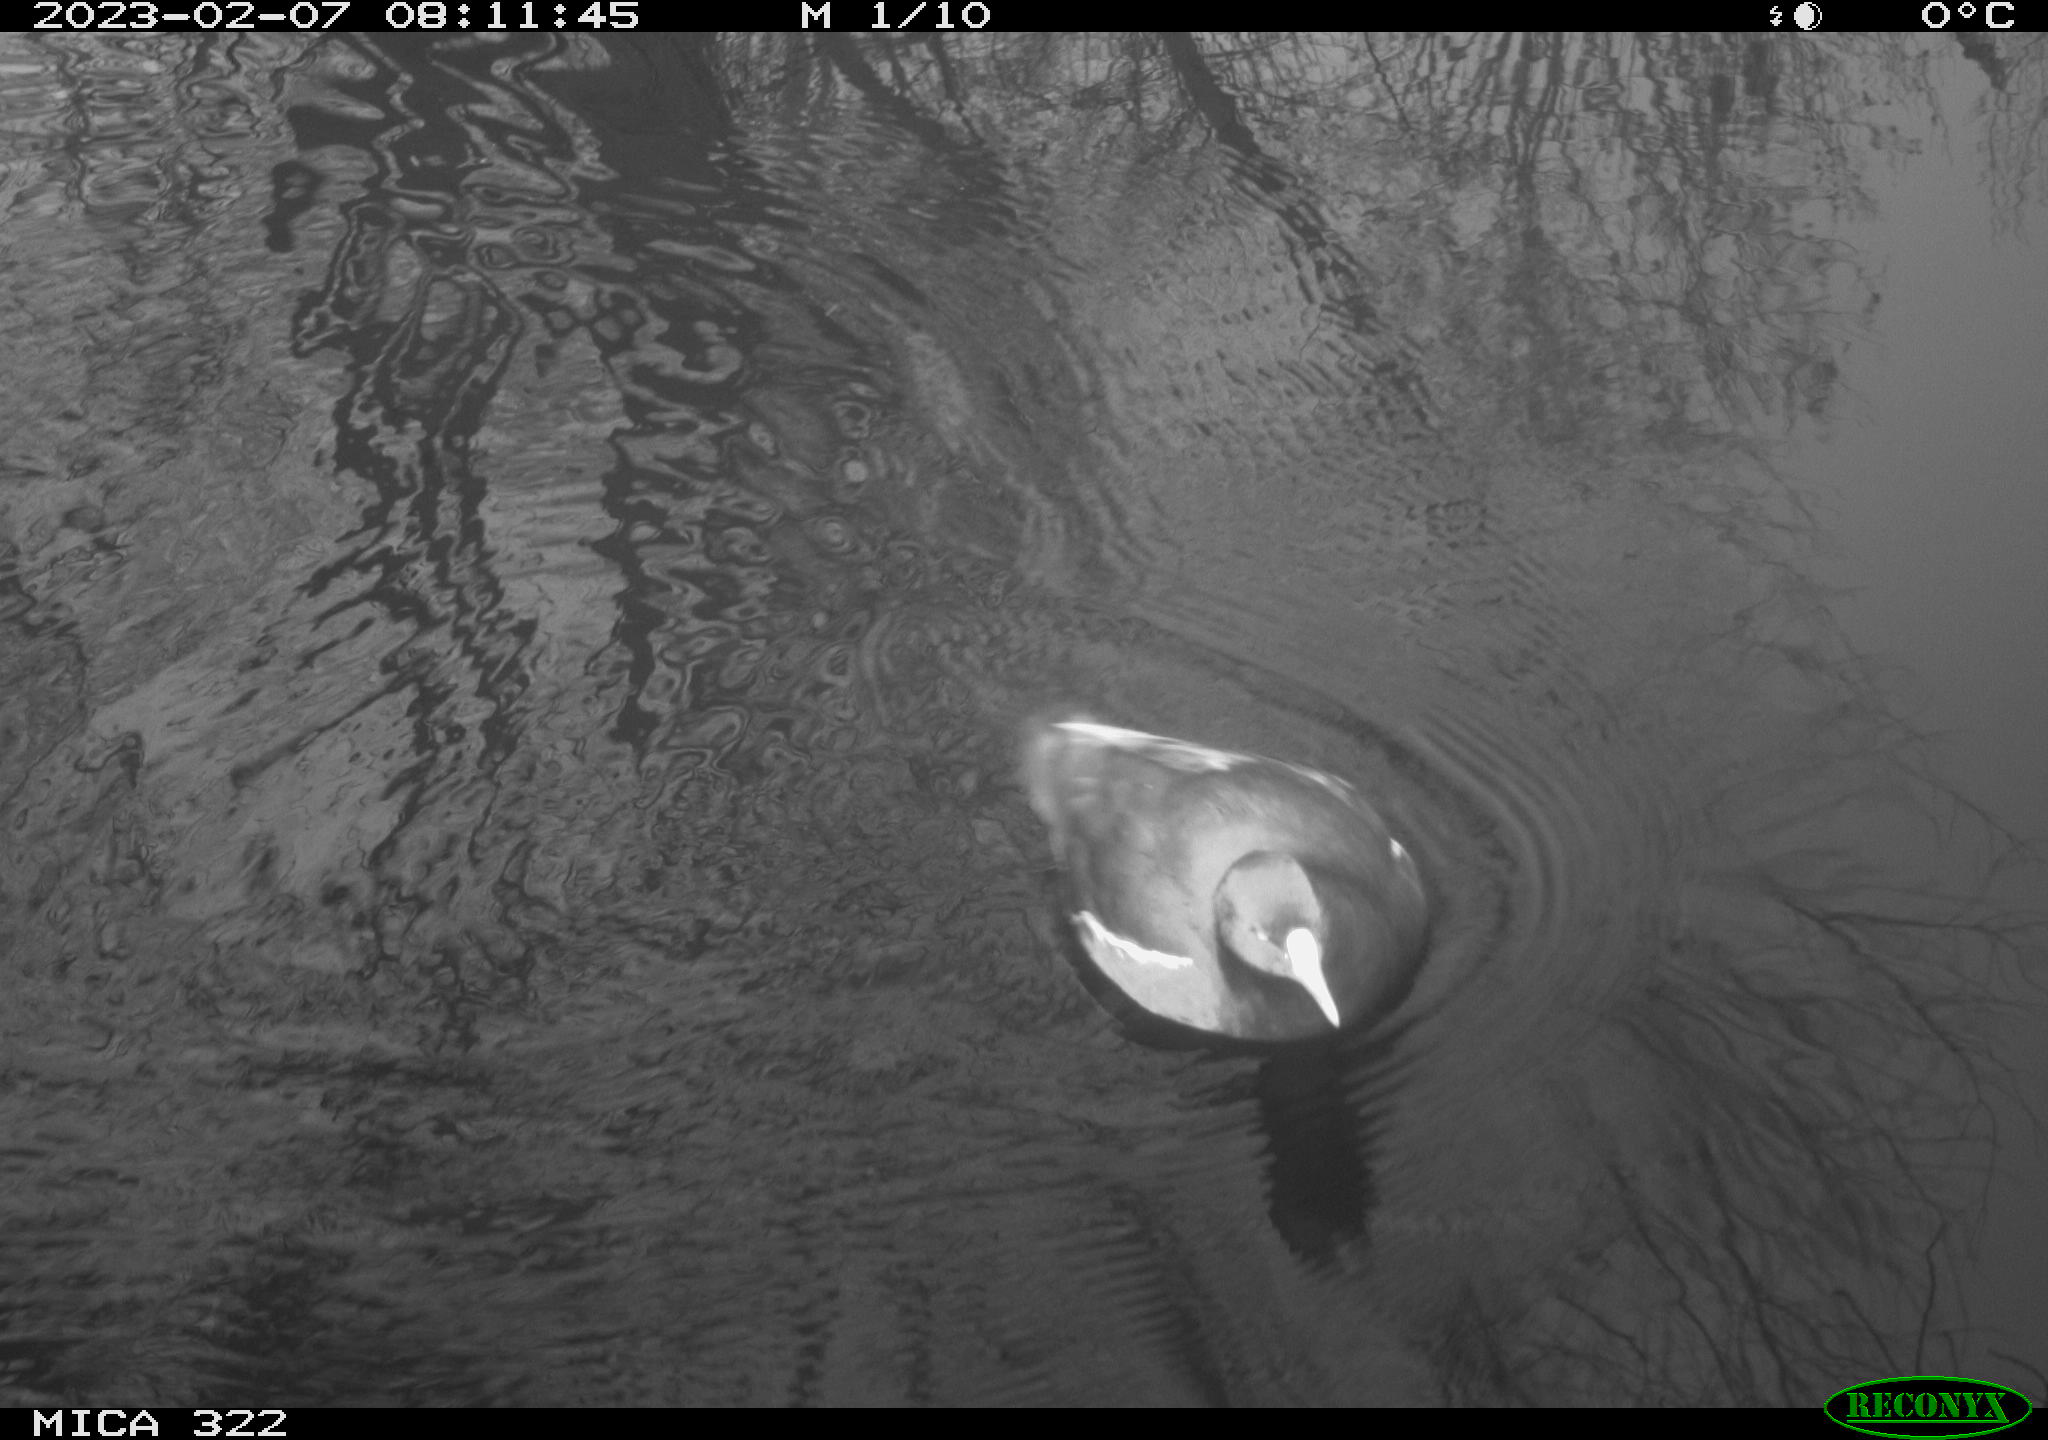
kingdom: Animalia
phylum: Chordata
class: Aves
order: Gruiformes
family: Rallidae
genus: Fulica
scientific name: Fulica atra
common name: Eurasian coot
